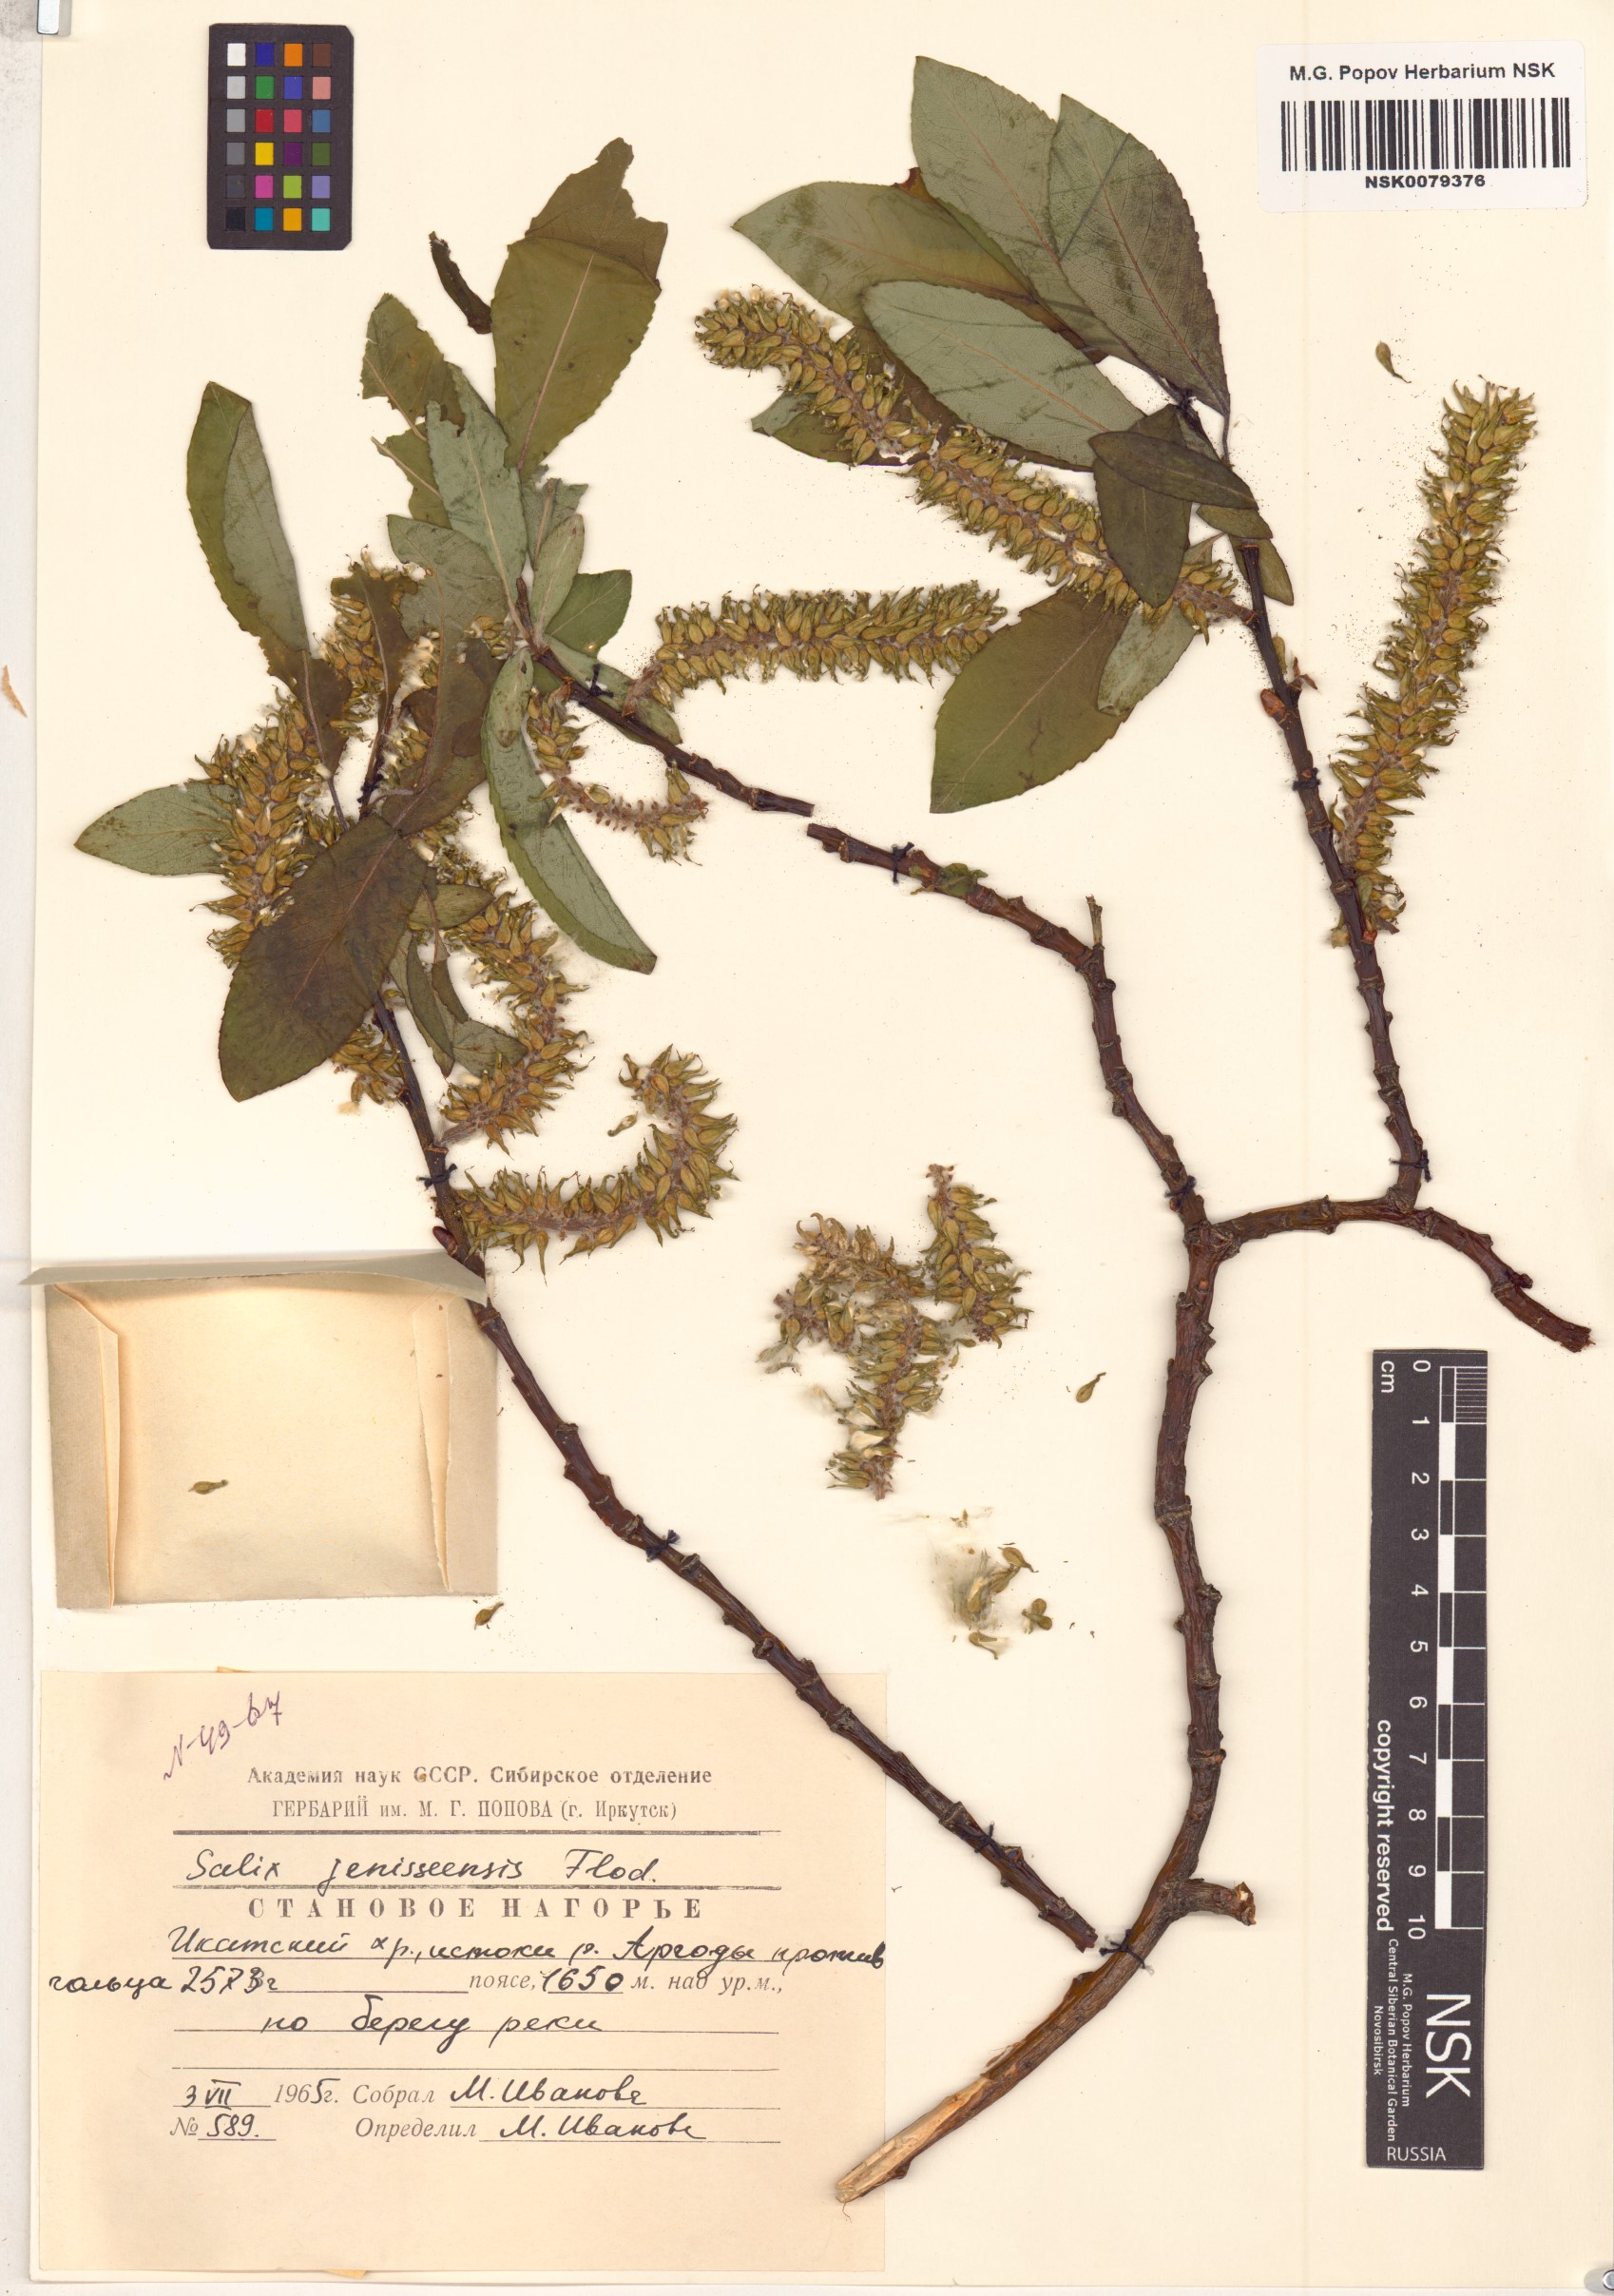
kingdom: Plantae
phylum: Tracheophyta
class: Magnoliopsida
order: Malpighiales
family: Salicaceae
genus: Salix
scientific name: Salix jenisseensis
